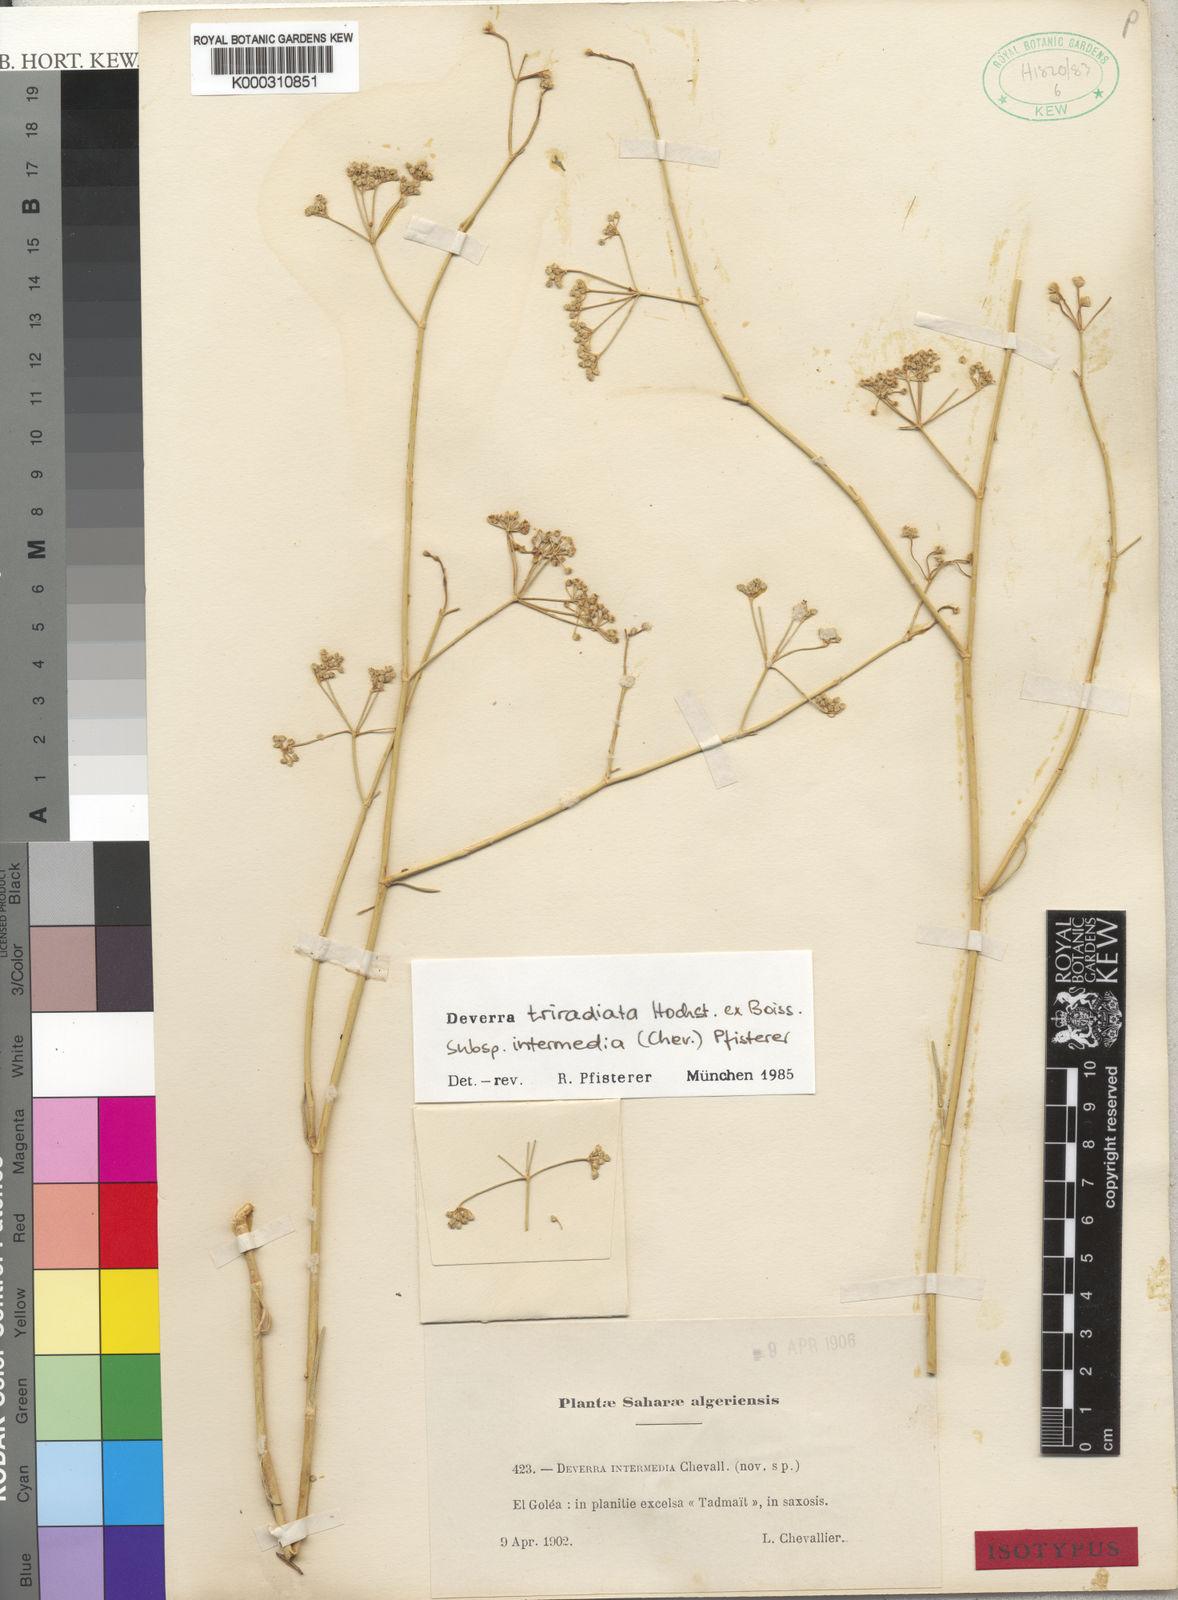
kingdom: Plantae
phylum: Tracheophyta
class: Magnoliopsida
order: Apiales
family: Apiaceae
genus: Deverra
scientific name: Deverra triradiata
